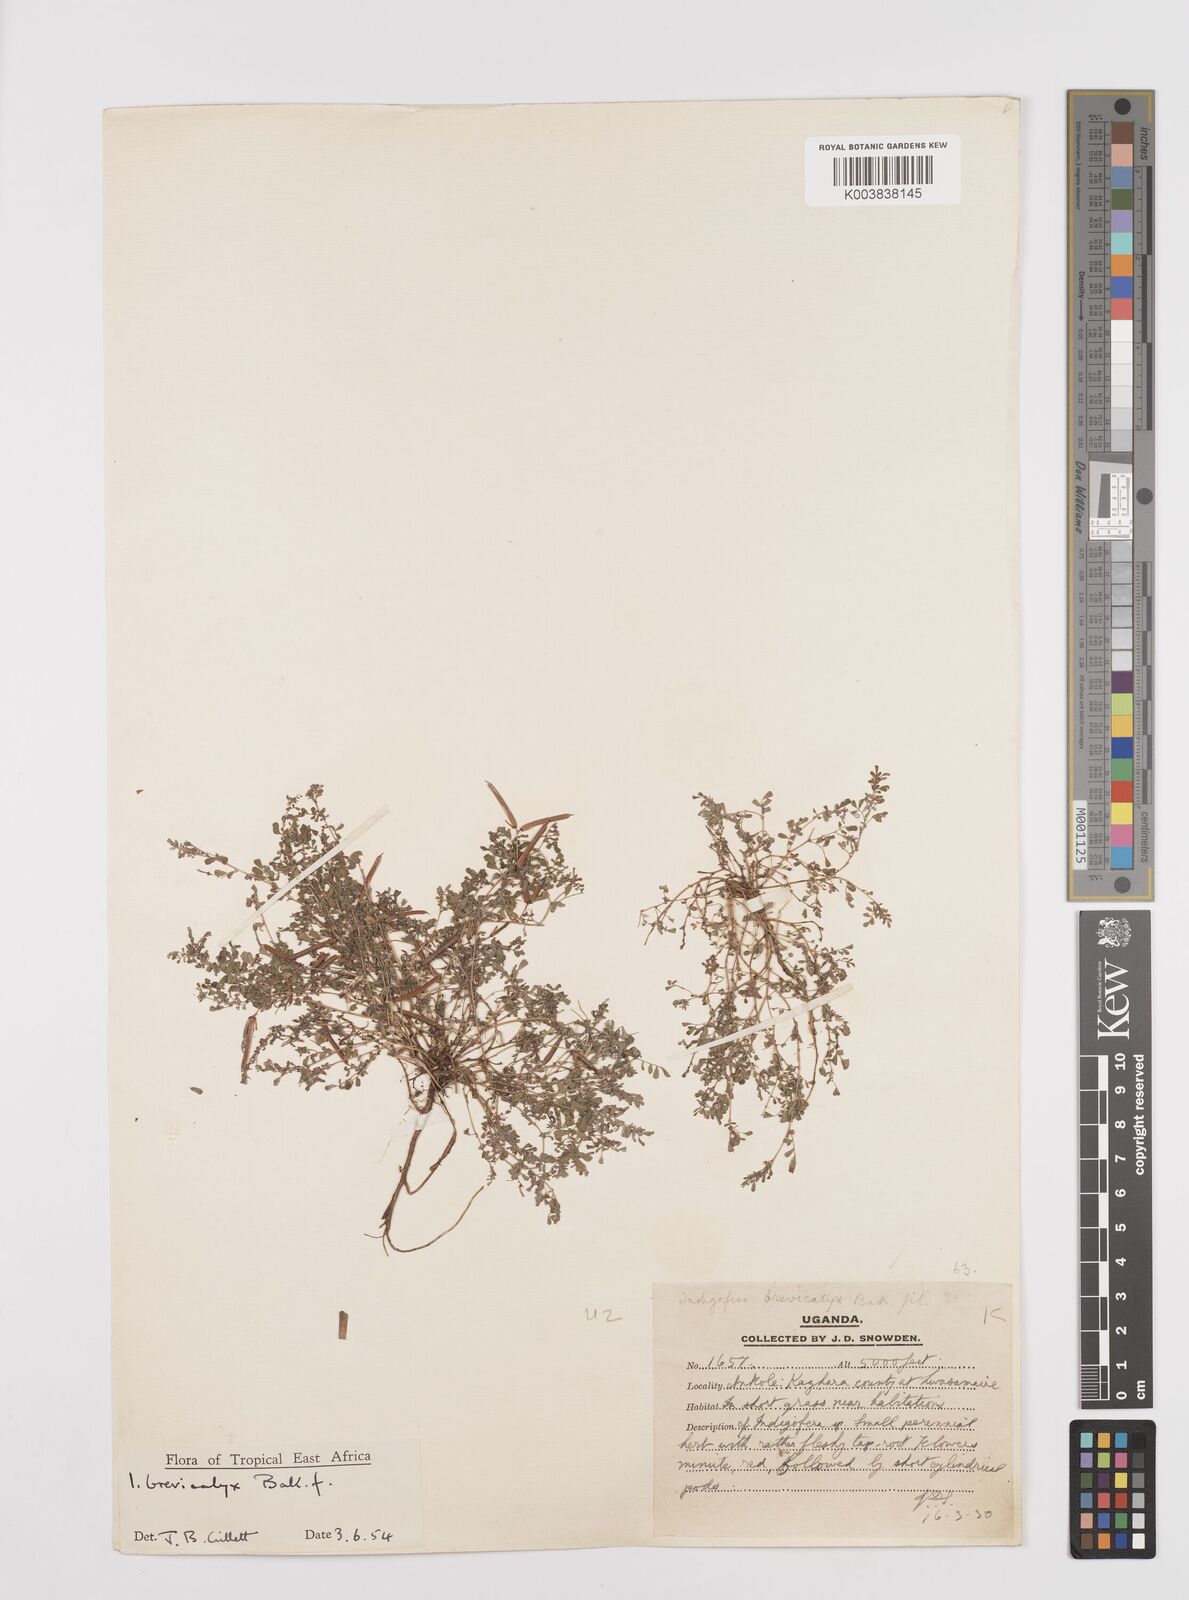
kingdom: Plantae
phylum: Tracheophyta
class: Magnoliopsida
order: Fabales
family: Fabaceae
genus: Indigofera
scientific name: Indigofera brevicalyx
